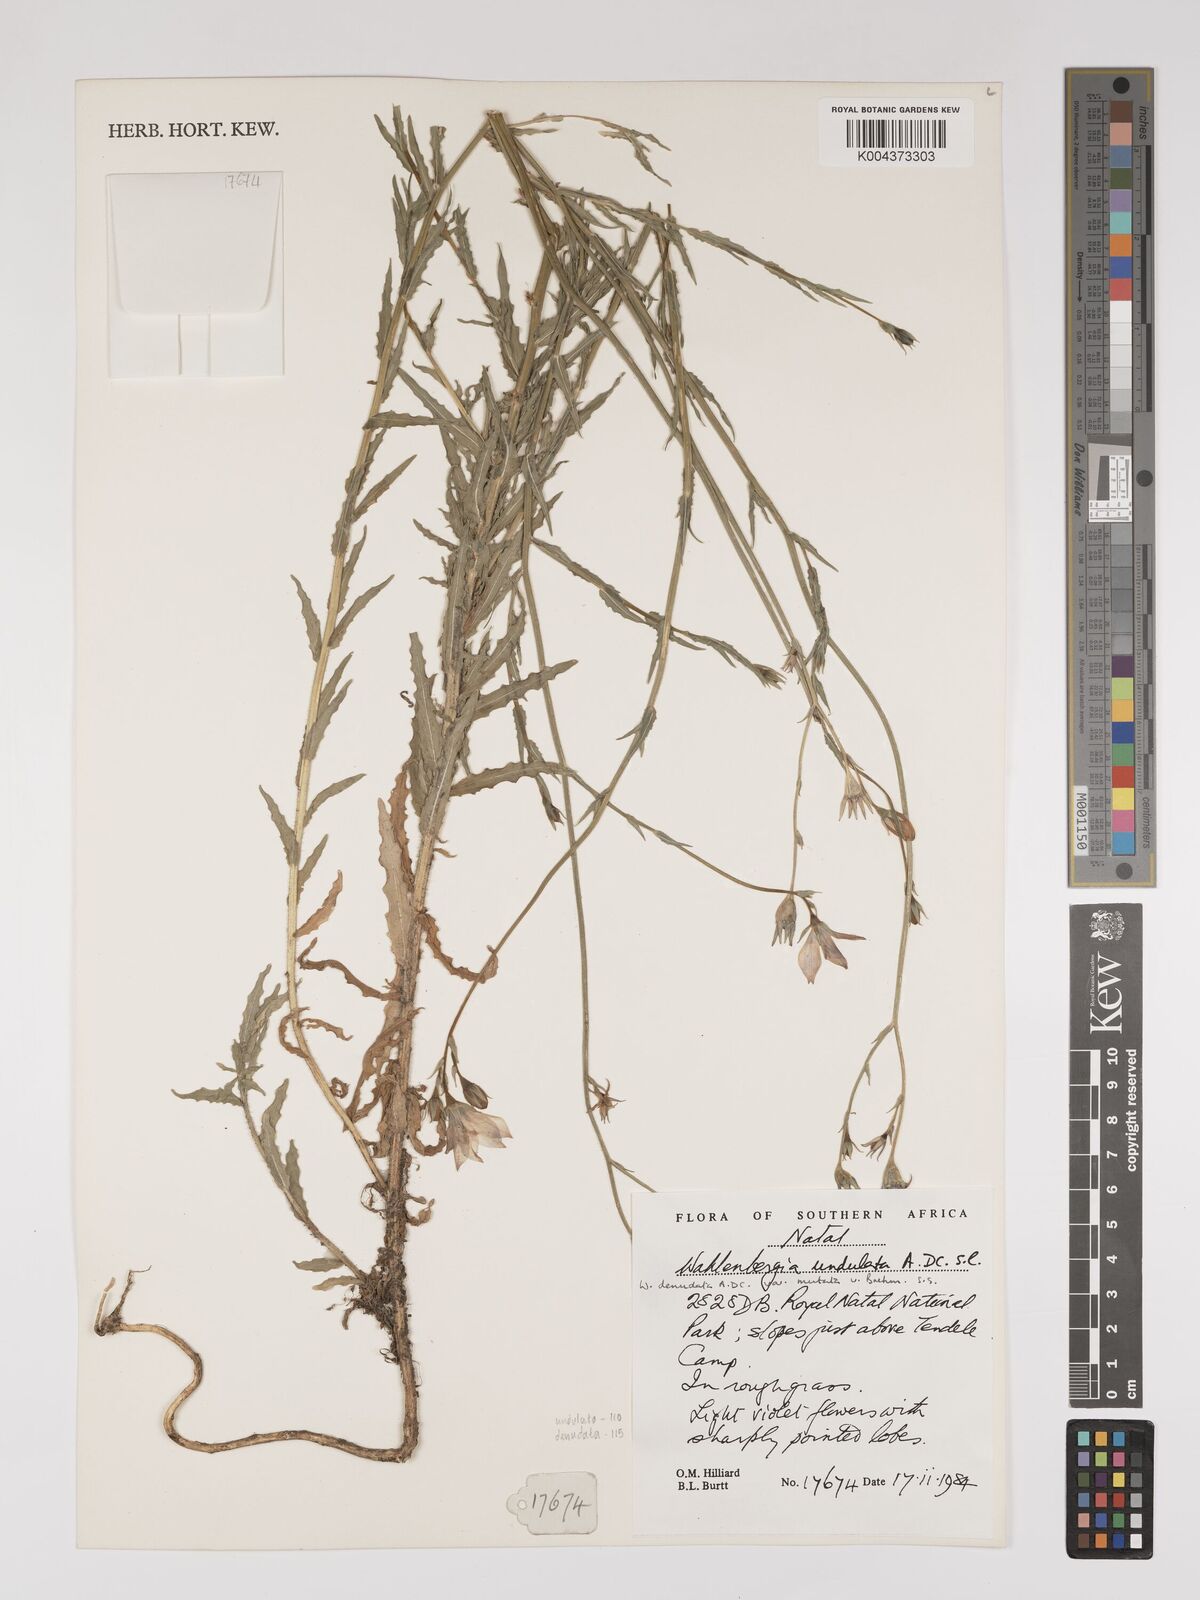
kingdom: Plantae
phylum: Tracheophyta
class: Magnoliopsida
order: Asterales
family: Campanulaceae
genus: Wahlenbergia
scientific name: Wahlenbergia undulata
